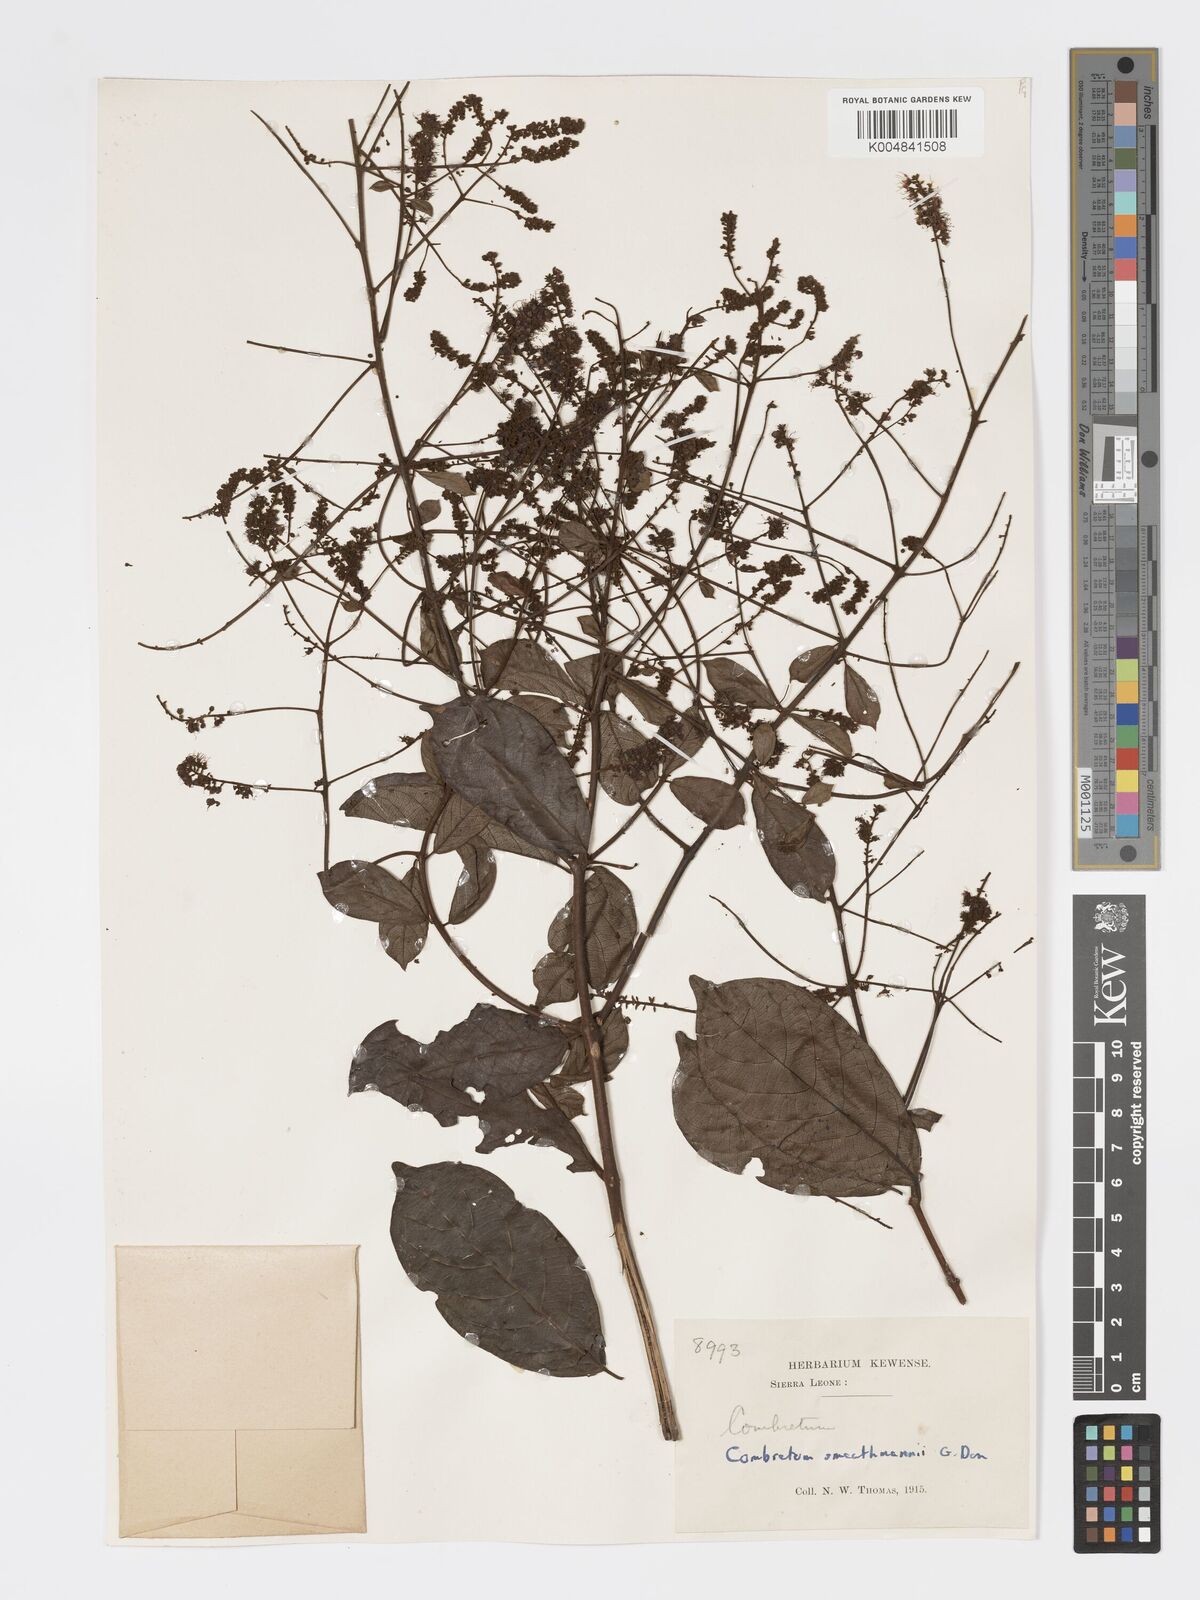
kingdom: Plantae
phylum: Tracheophyta
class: Magnoliopsida
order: Myrtales
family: Combretaceae
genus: Combretum
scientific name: Combretum mucronatum
